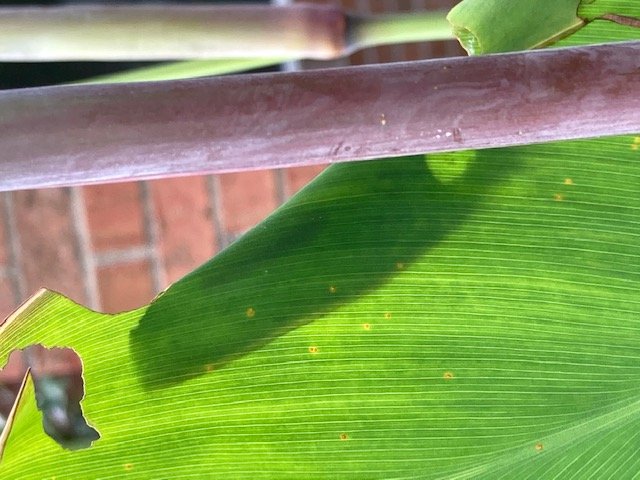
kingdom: Animalia
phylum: Arthropoda
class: Insecta
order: Lepidoptera
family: Hesperiidae
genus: Calpodes
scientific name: Calpodes ethlius
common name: Brazilian Skipper
